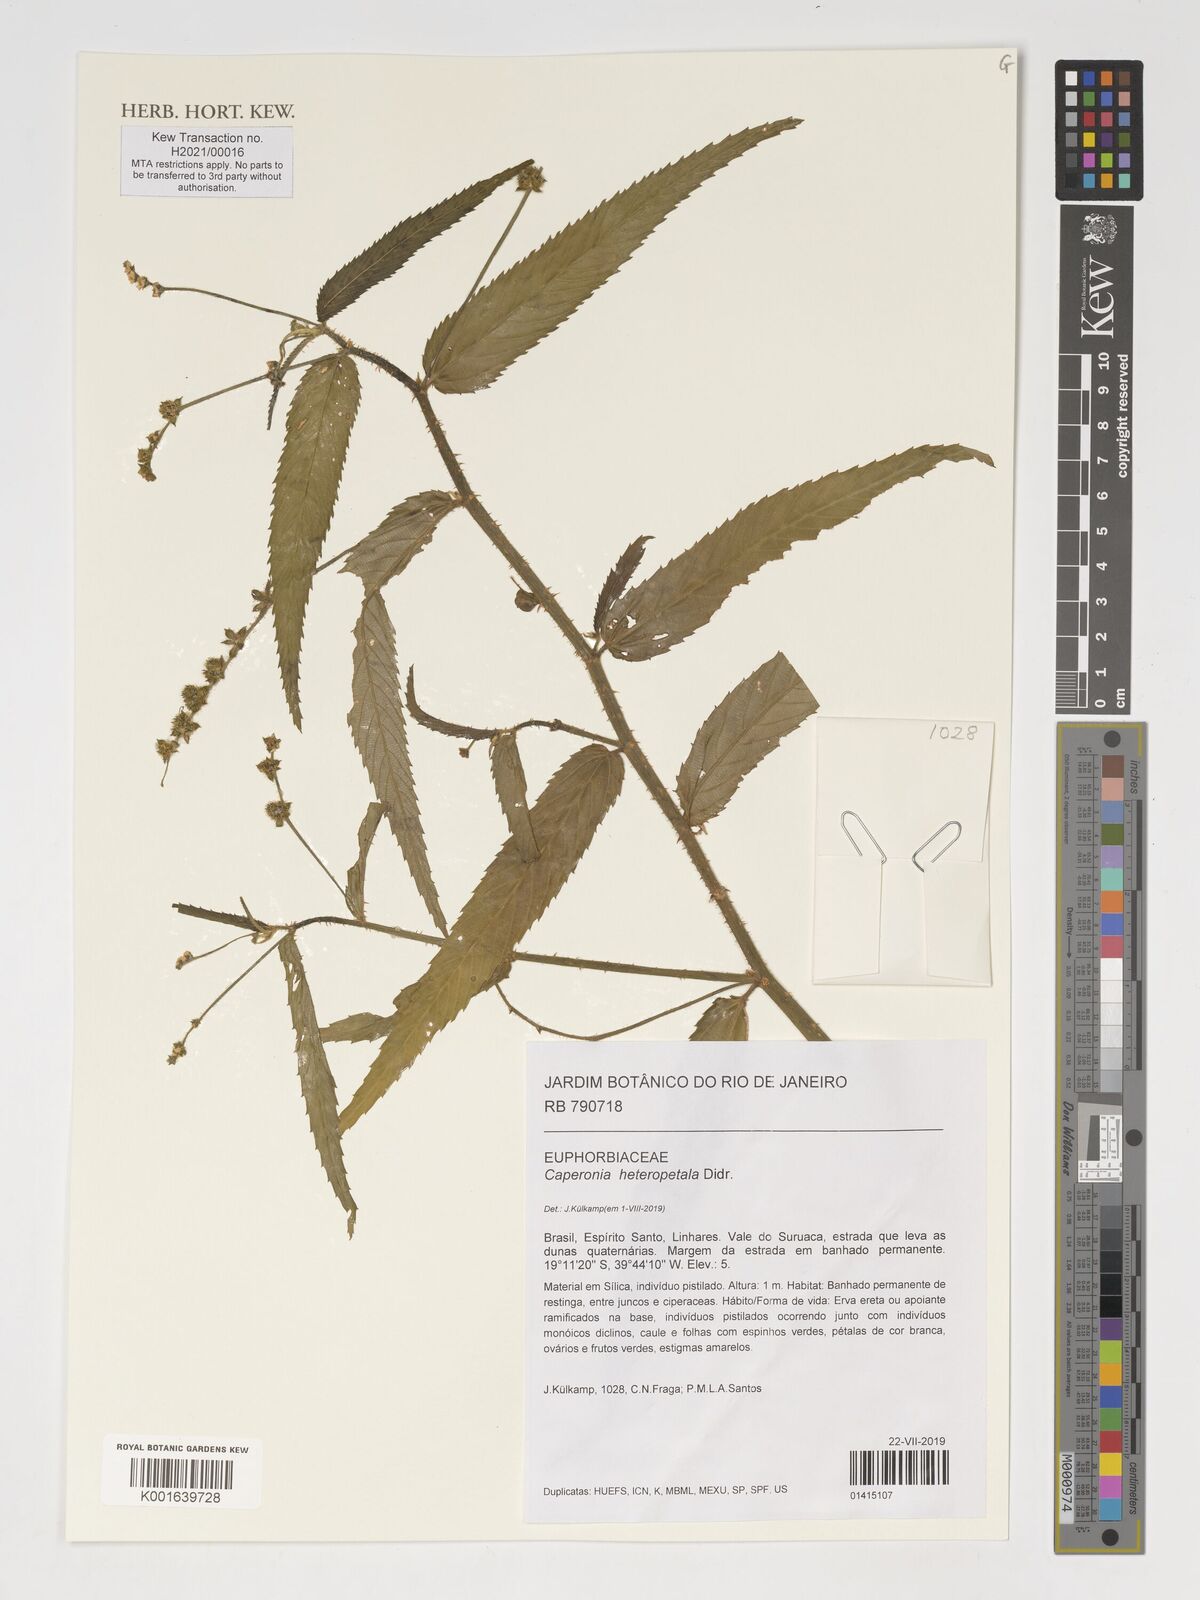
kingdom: Plantae
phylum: Tracheophyta
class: Magnoliopsida
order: Malpighiales
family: Euphorbiaceae
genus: Caperonia
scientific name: Caperonia heteropetala
